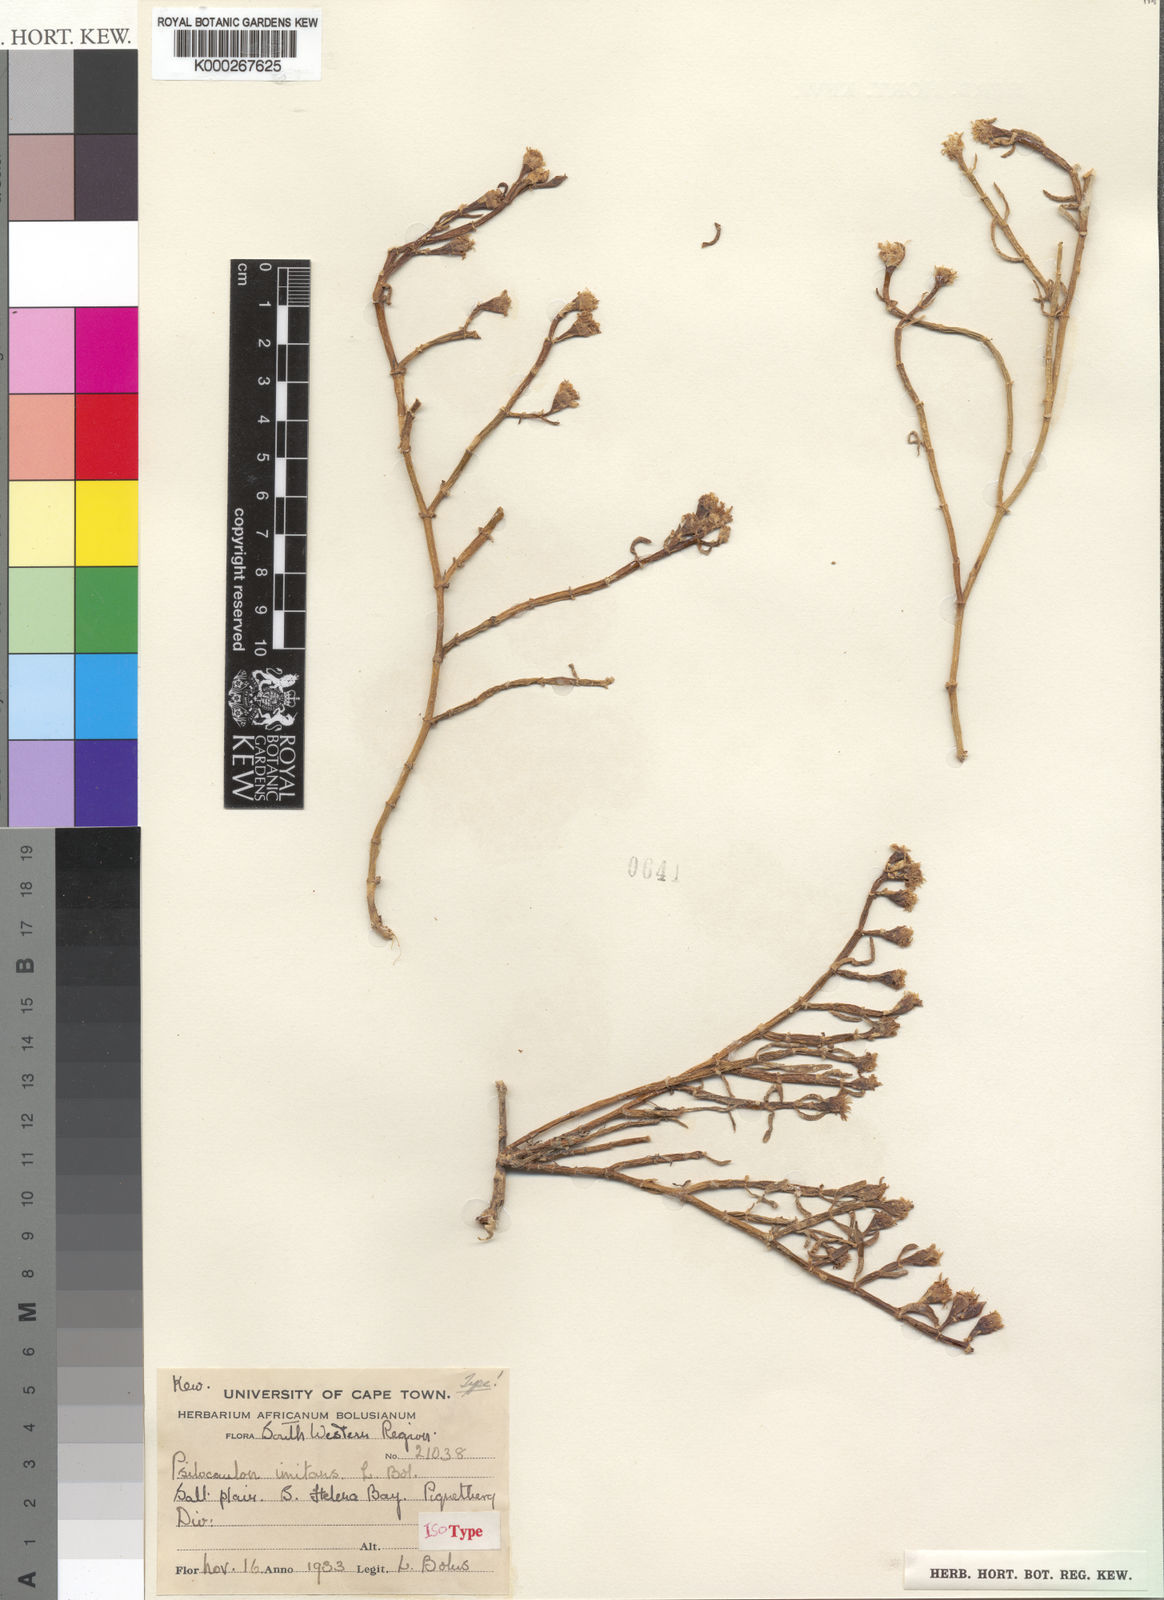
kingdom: Plantae
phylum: Tracheophyta
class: Magnoliopsida
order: Caryophyllales
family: Aizoaceae
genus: Mesembryanthemum
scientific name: Mesembryanthemum junceum
